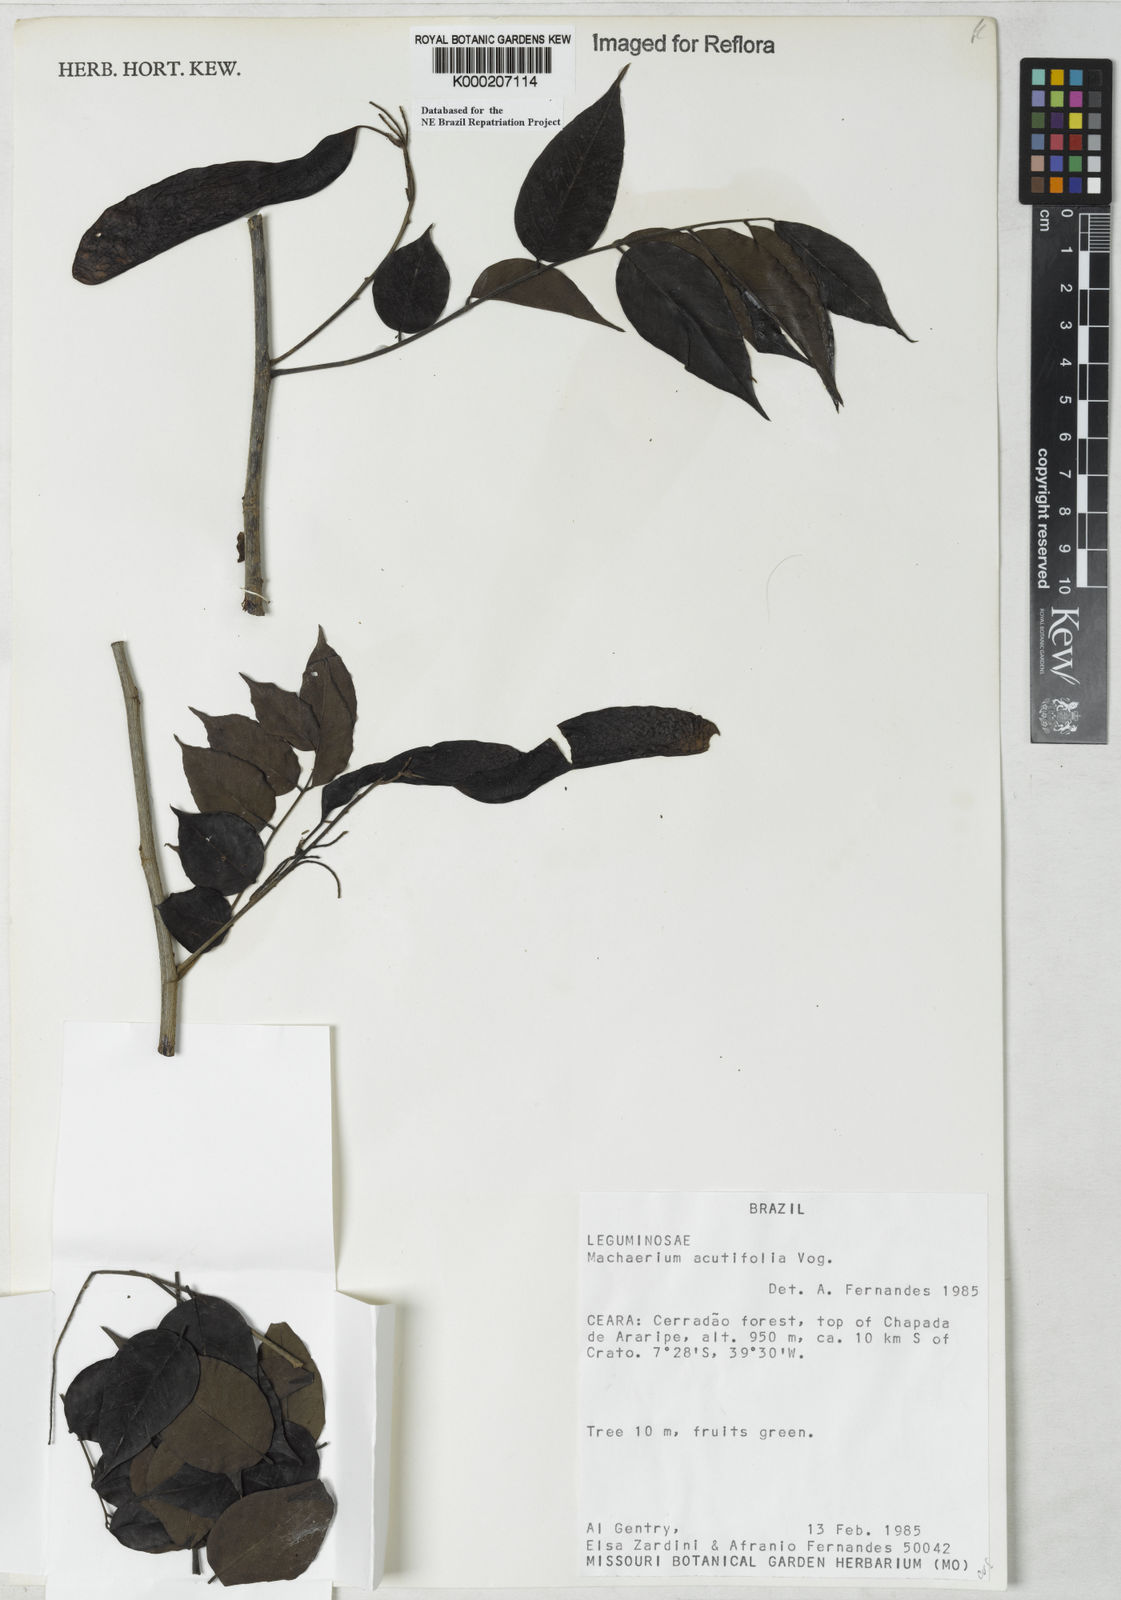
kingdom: Plantae
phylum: Tracheophyta
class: Magnoliopsida
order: Fabales
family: Fabaceae
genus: Machaerium
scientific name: Machaerium acutifolium
